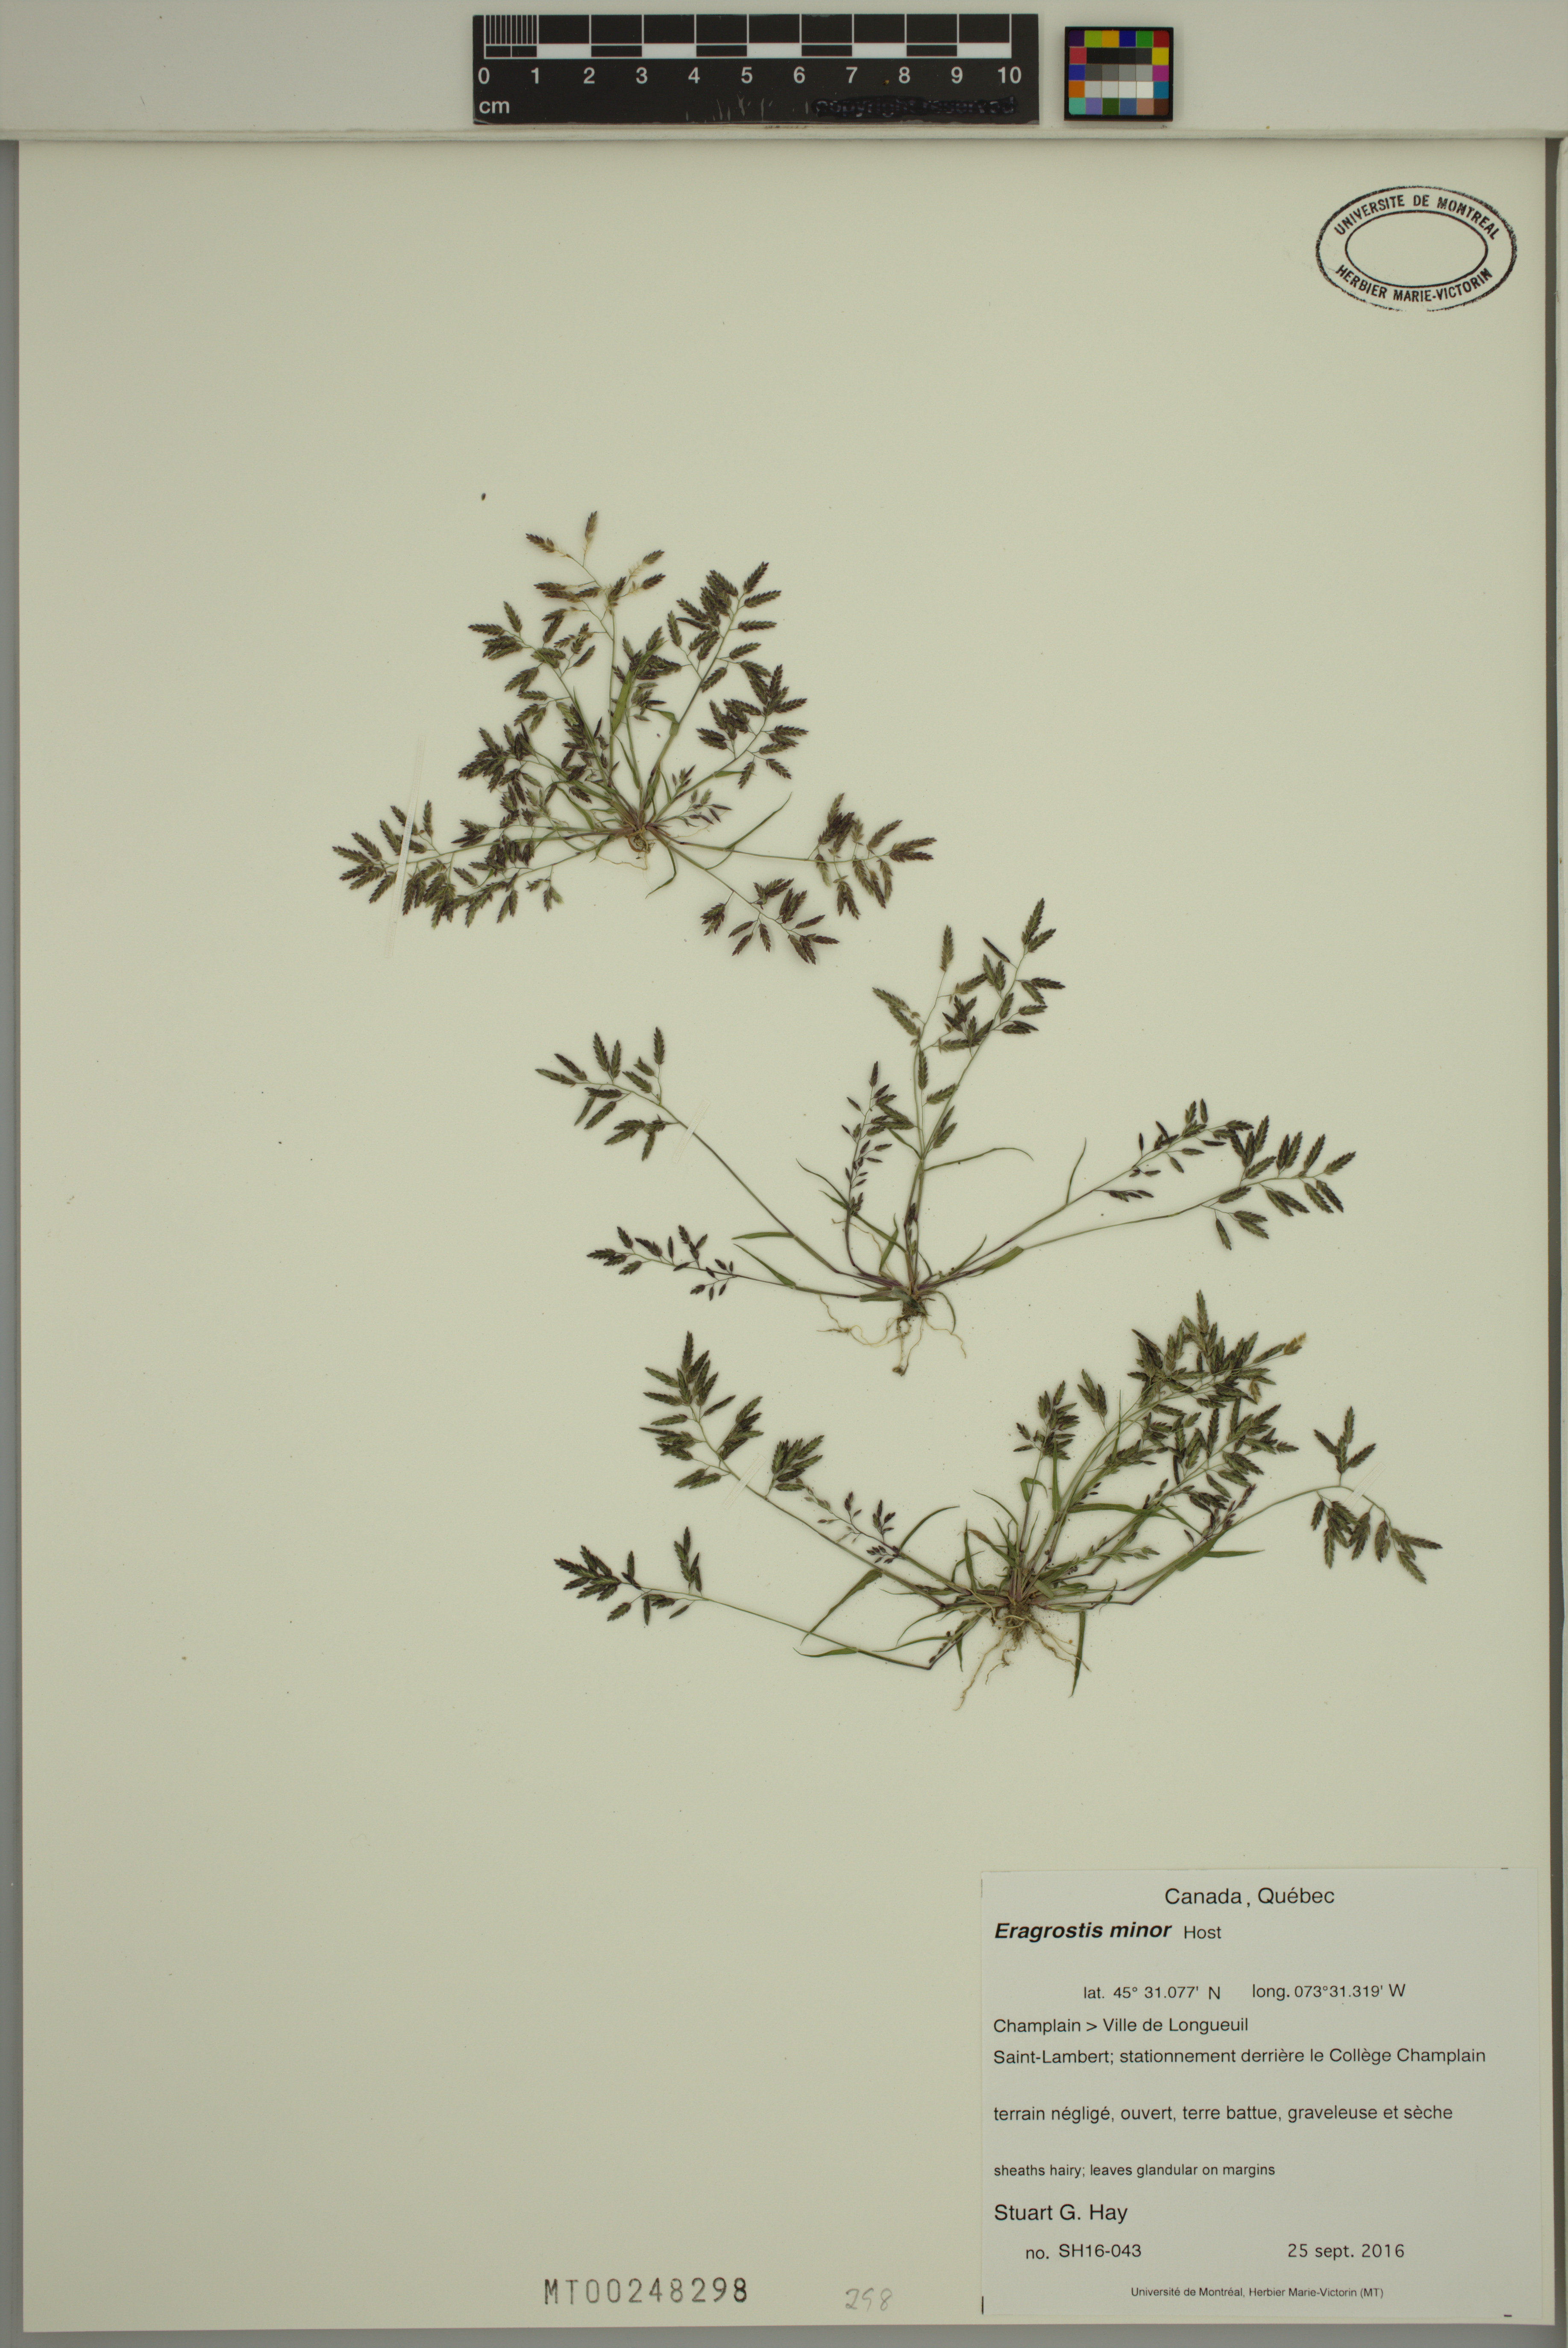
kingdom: Plantae
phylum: Tracheophyta
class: Liliopsida
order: Poales
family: Poaceae
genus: Eragrostis
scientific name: Eragrostis minor
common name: Small love-grass
